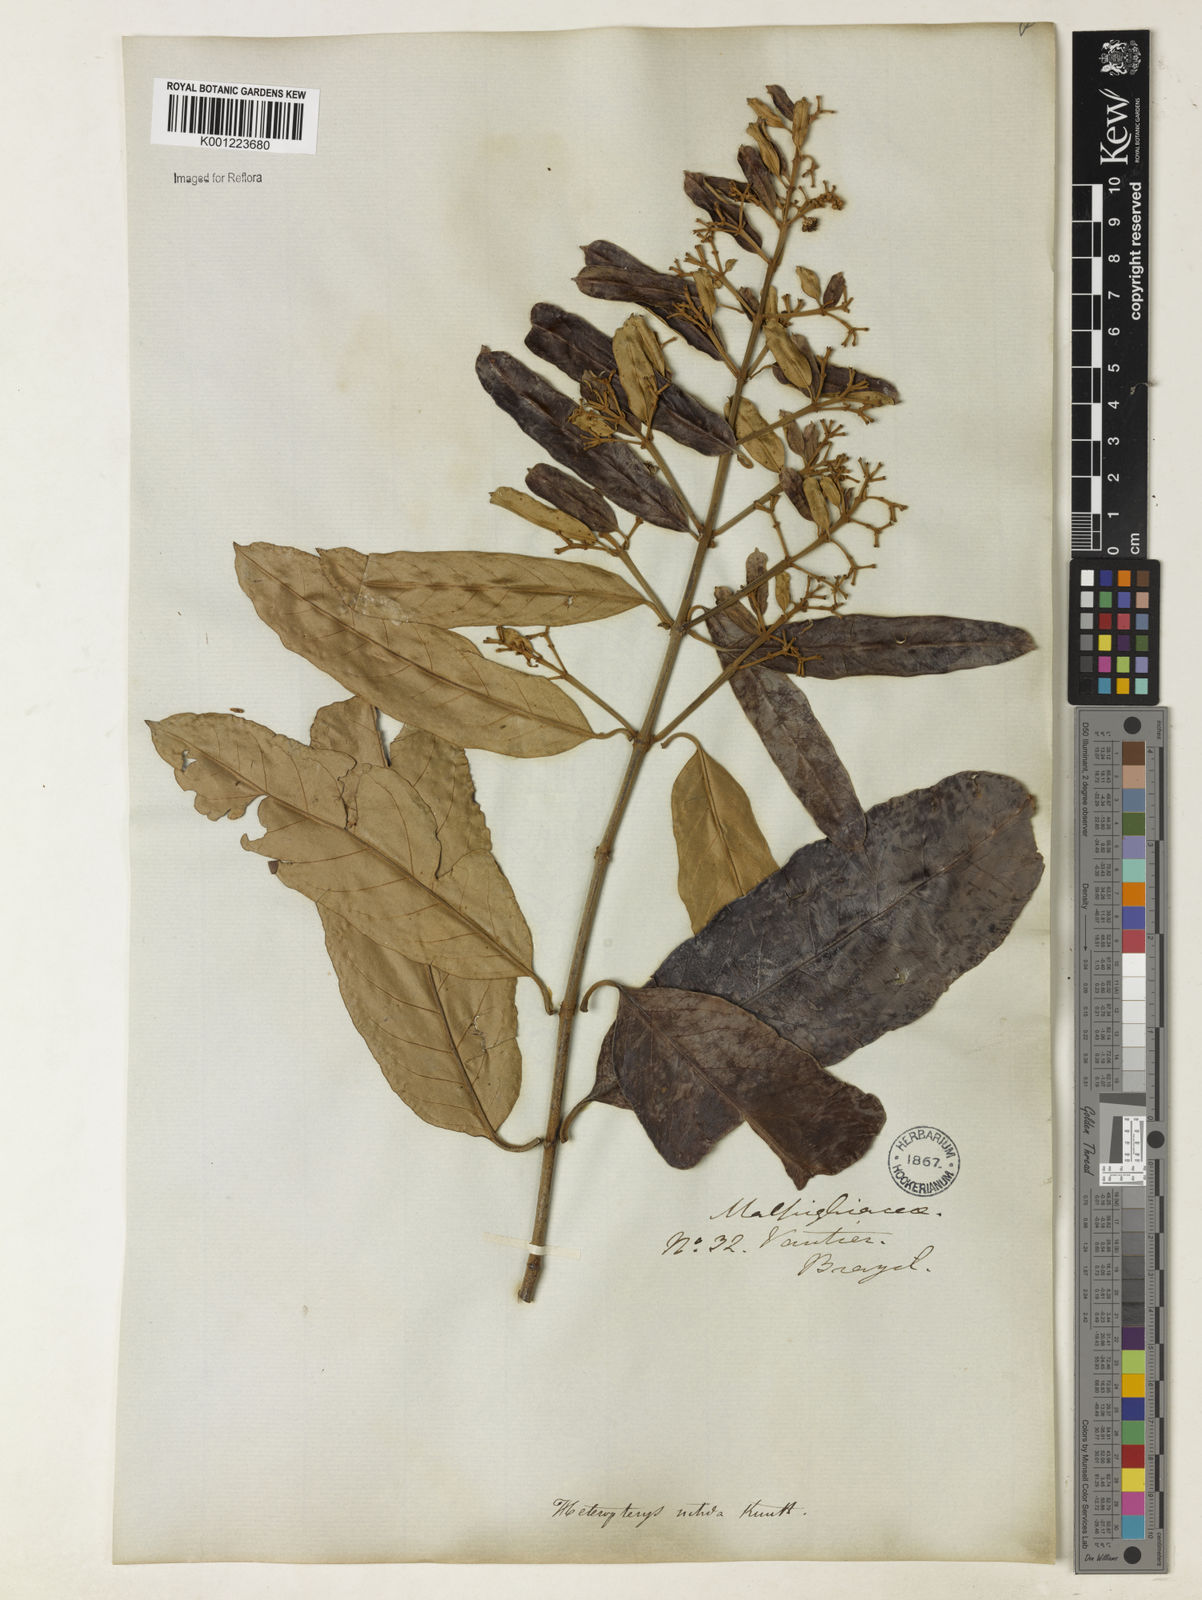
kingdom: Plantae
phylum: Tracheophyta
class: Magnoliopsida
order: Malpighiales
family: Malpighiaceae
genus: Heteropterys
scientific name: Heteropterys nitida
